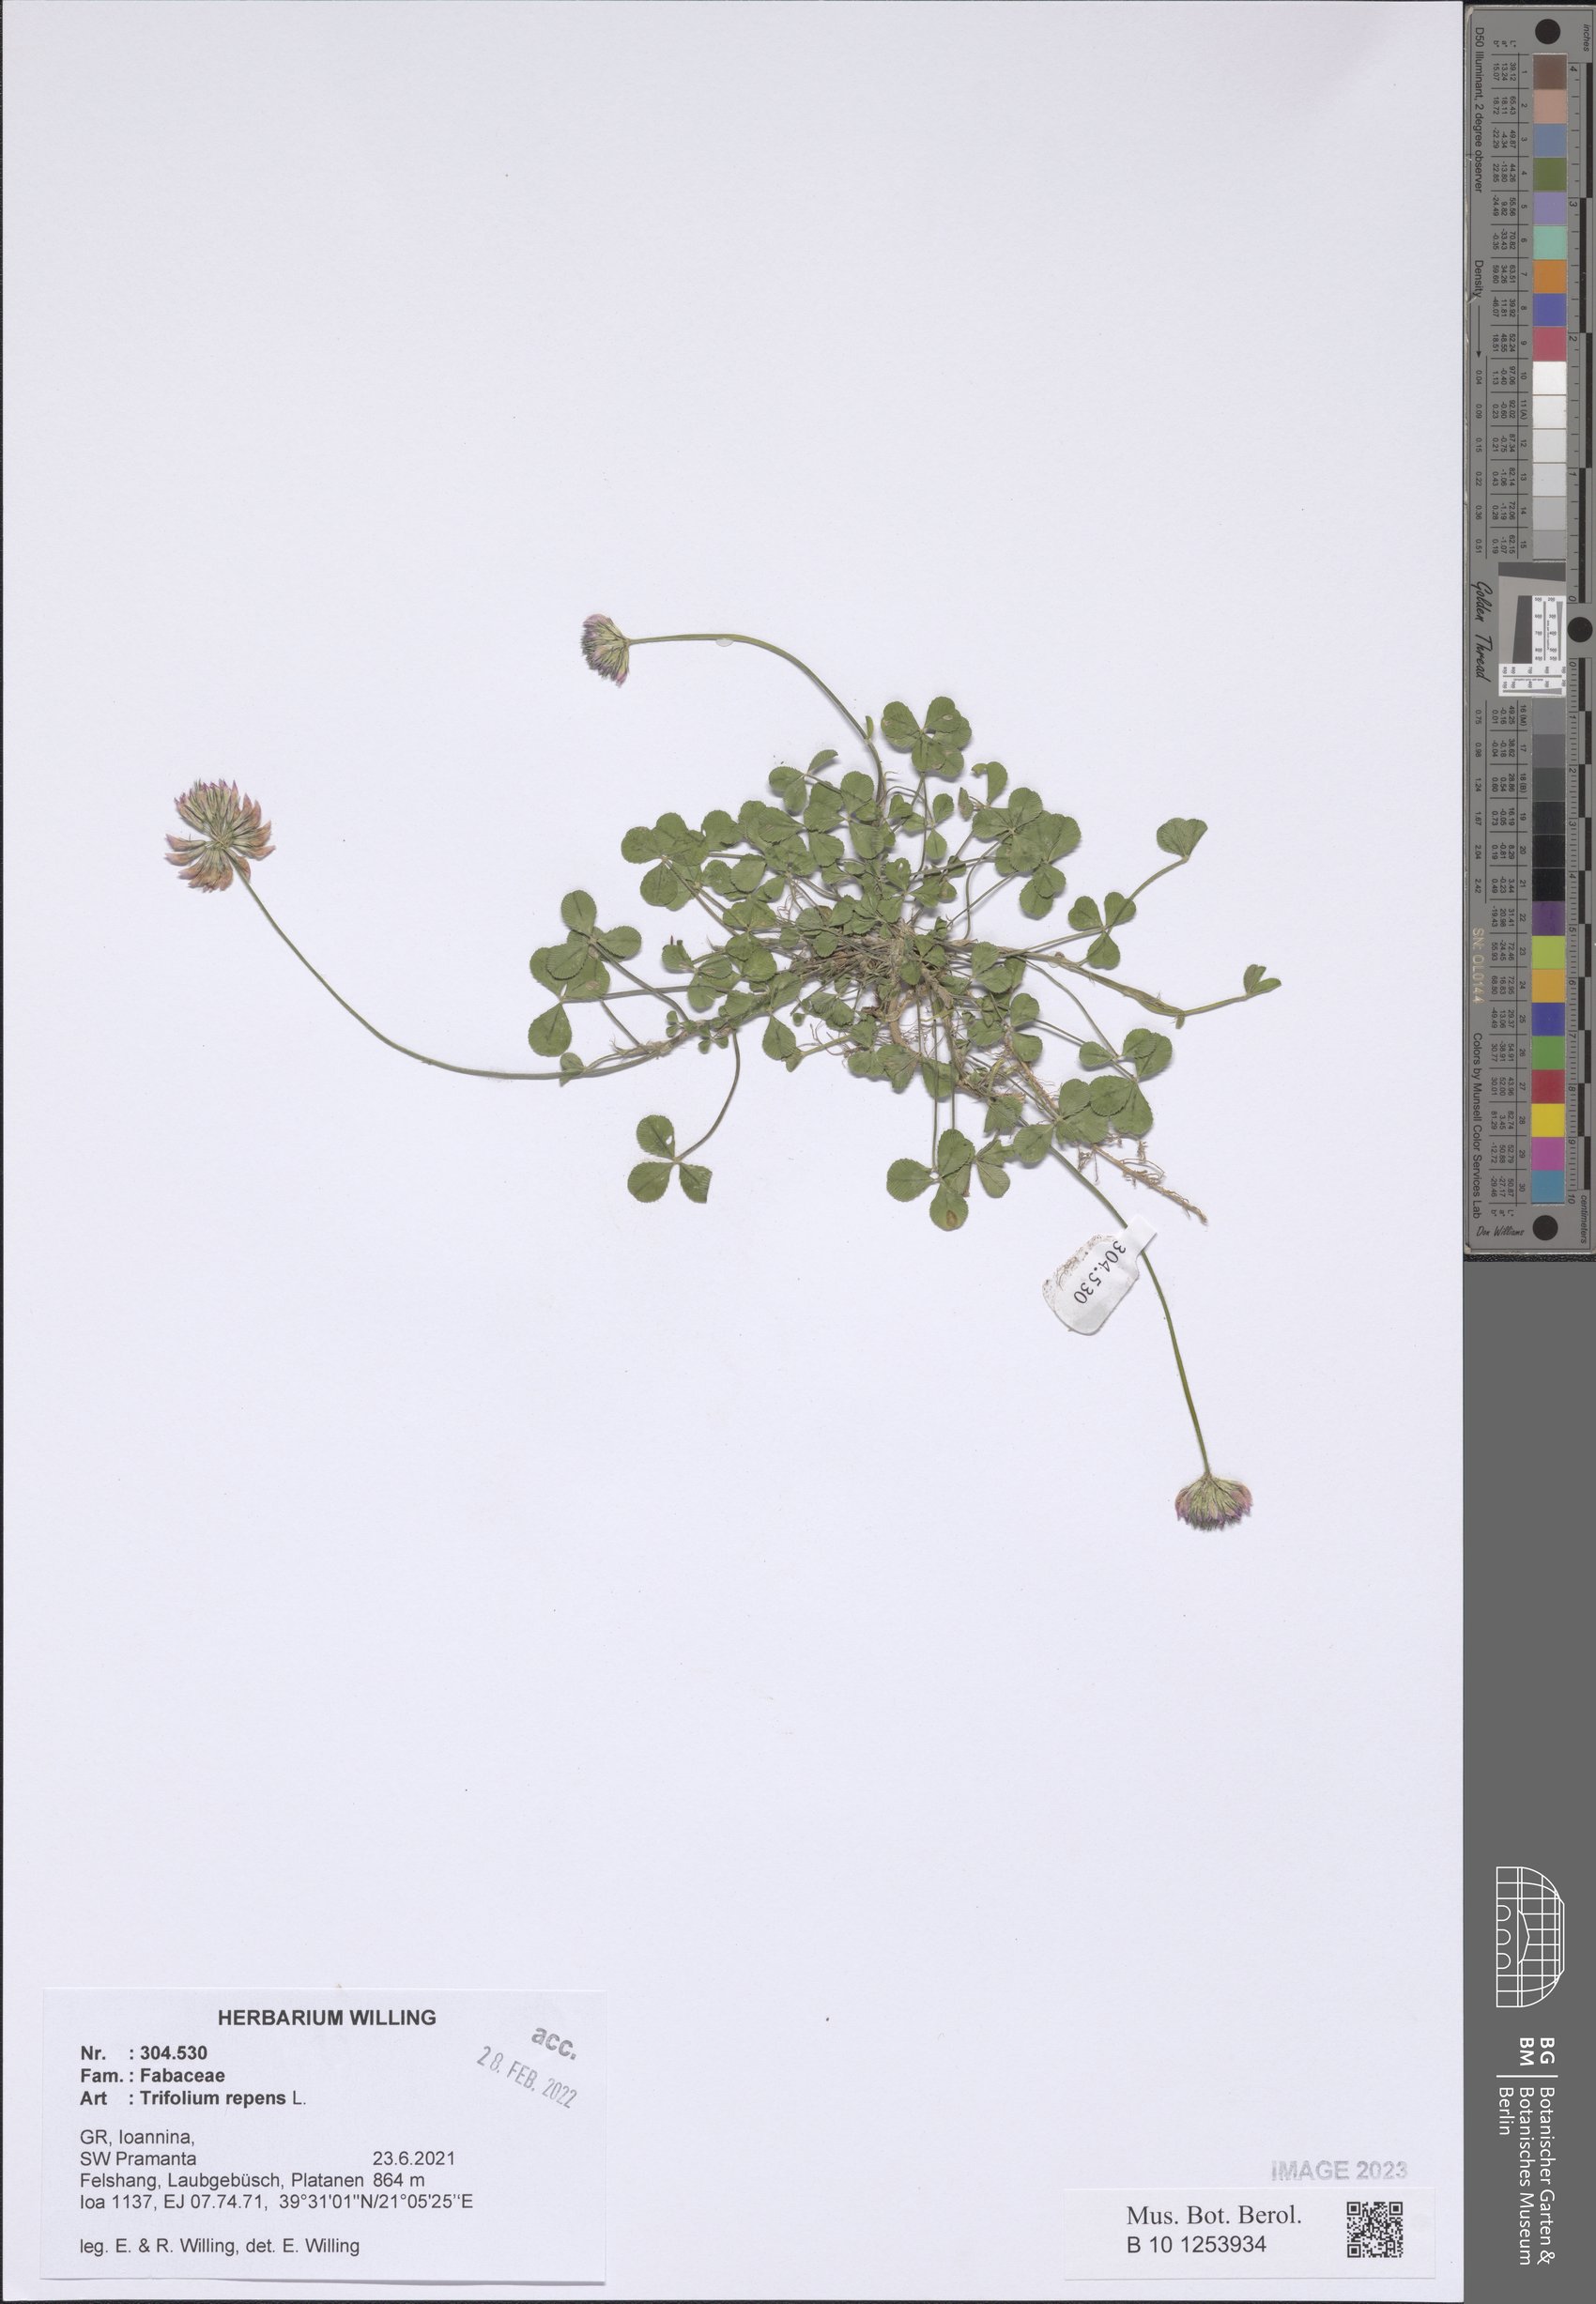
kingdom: Plantae
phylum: Tracheophyta
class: Magnoliopsida
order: Fabales
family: Fabaceae
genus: Trifolium
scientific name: Trifolium repens
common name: White clover
